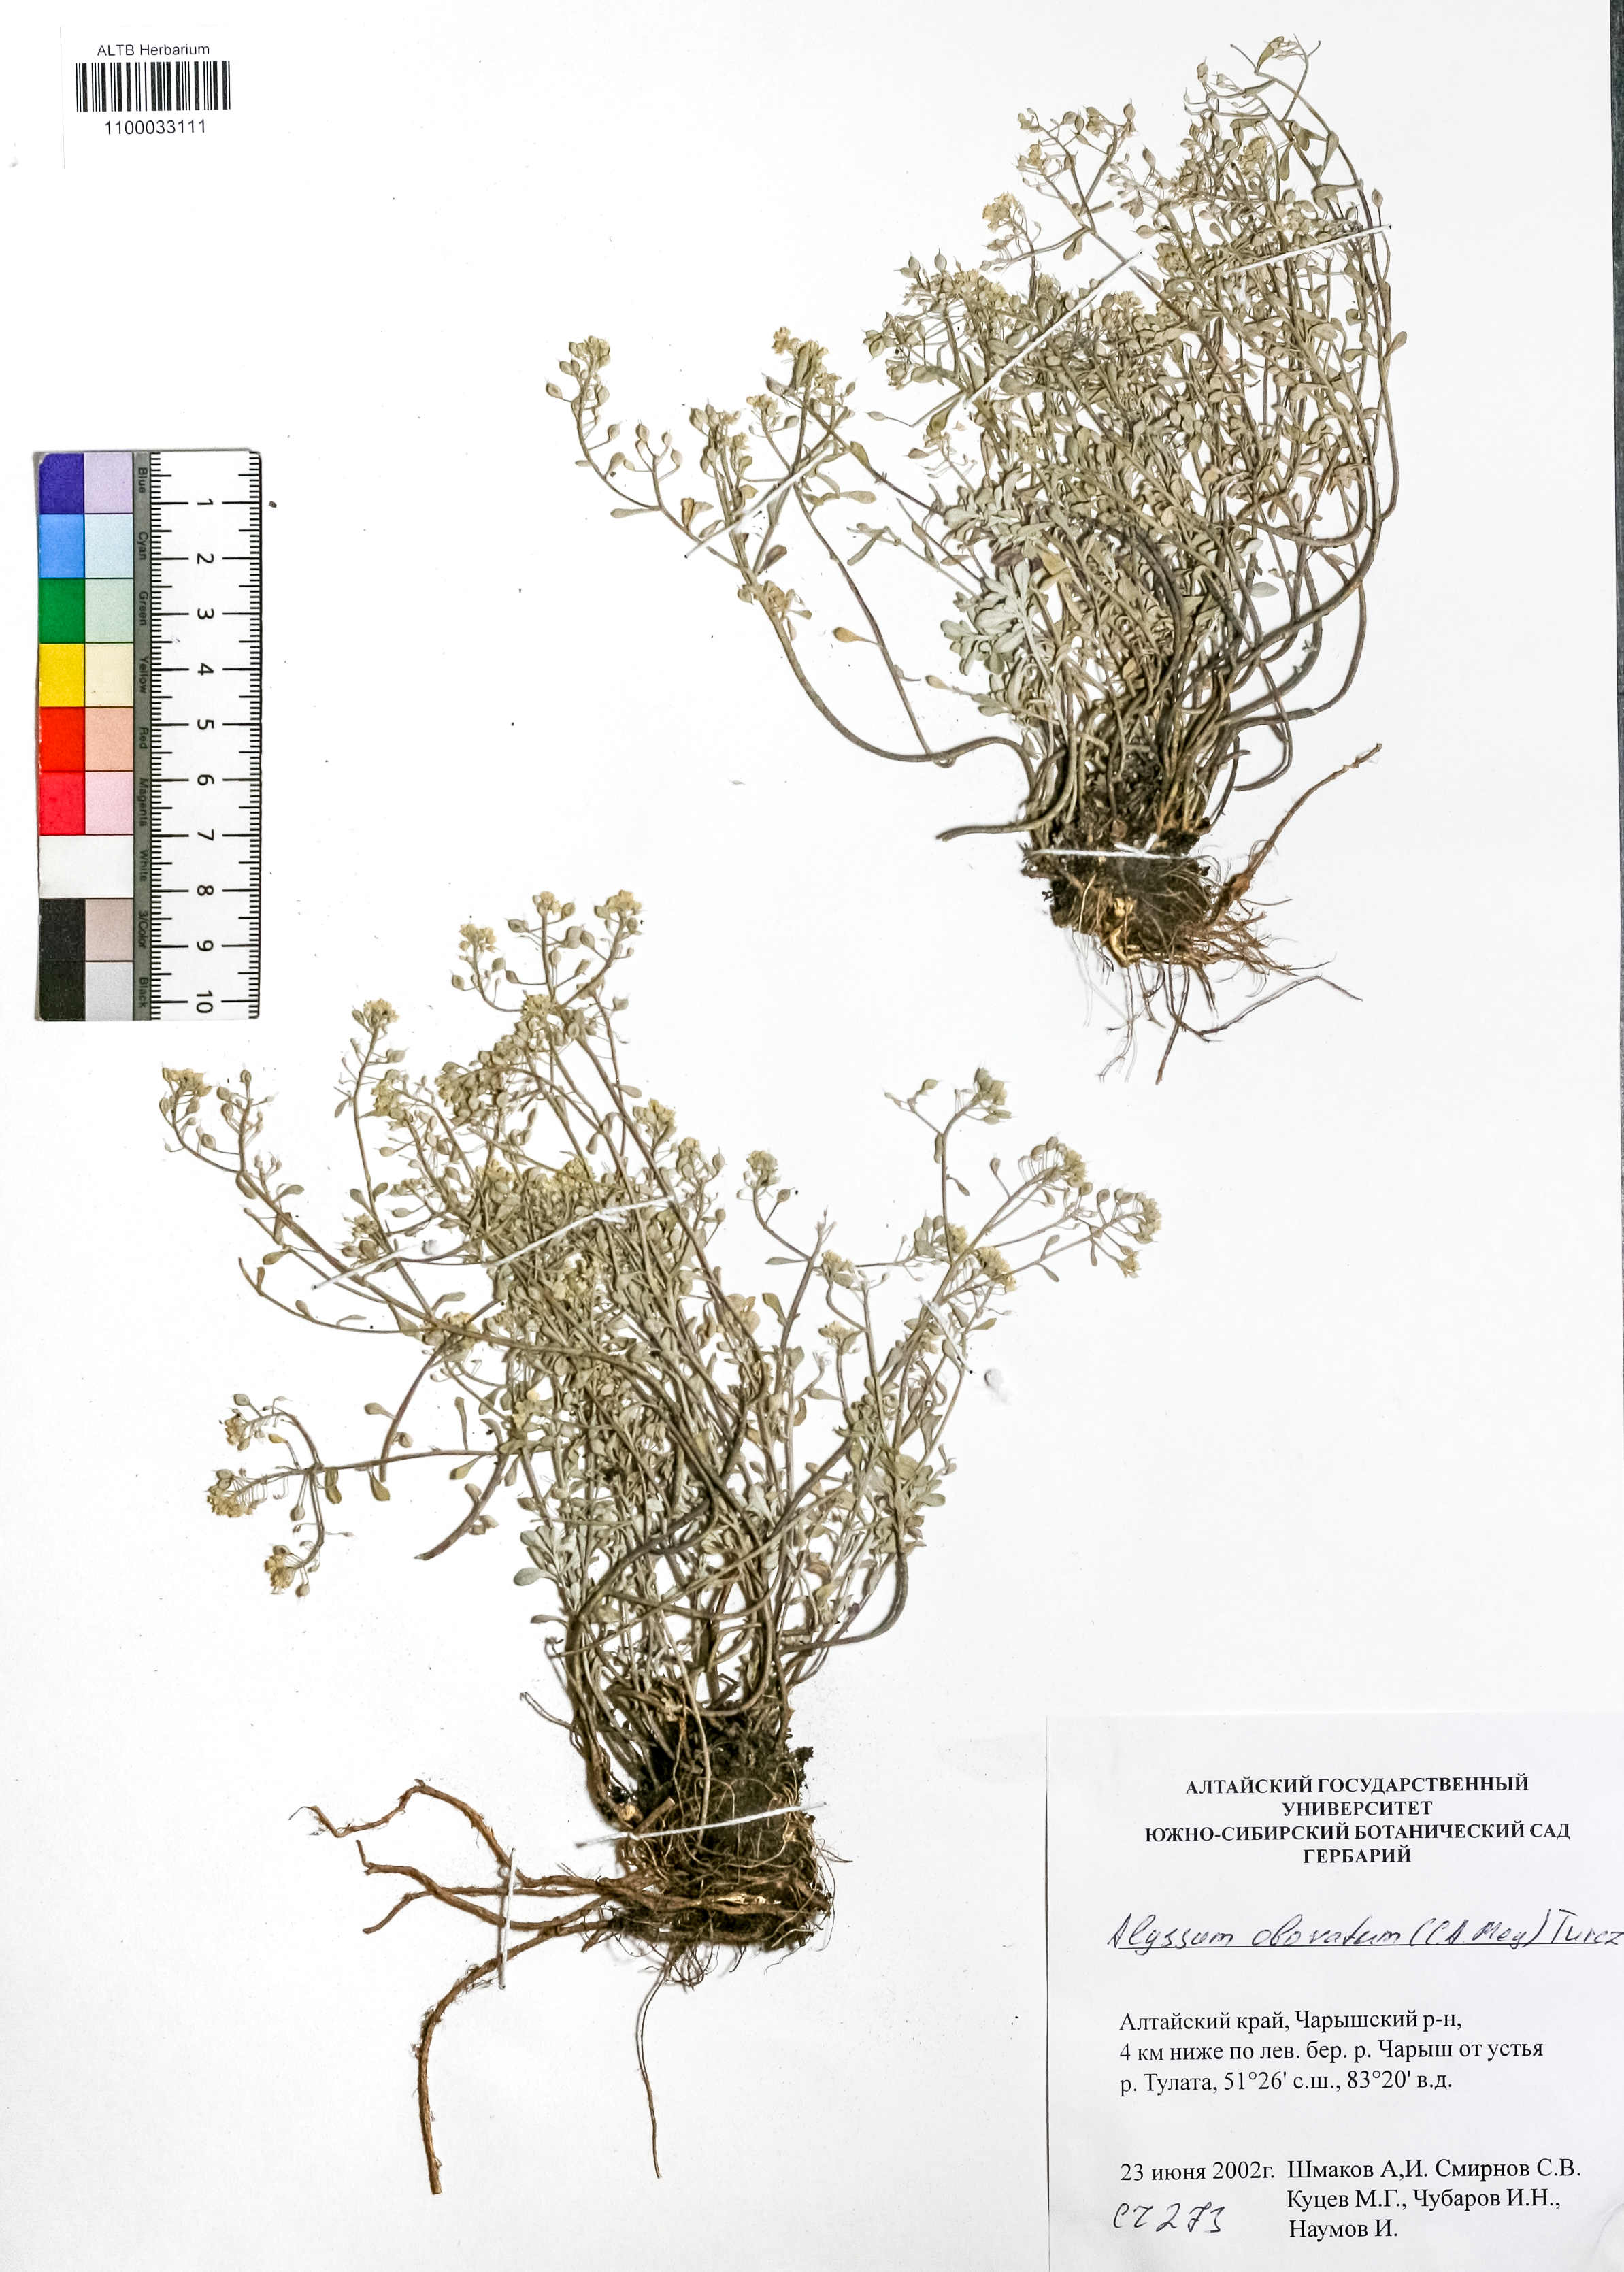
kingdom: Plantae
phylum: Tracheophyta
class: Magnoliopsida
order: Brassicales
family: Brassicaceae
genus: Odontarrhena
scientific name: Odontarrhena obovata
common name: American alyssum
